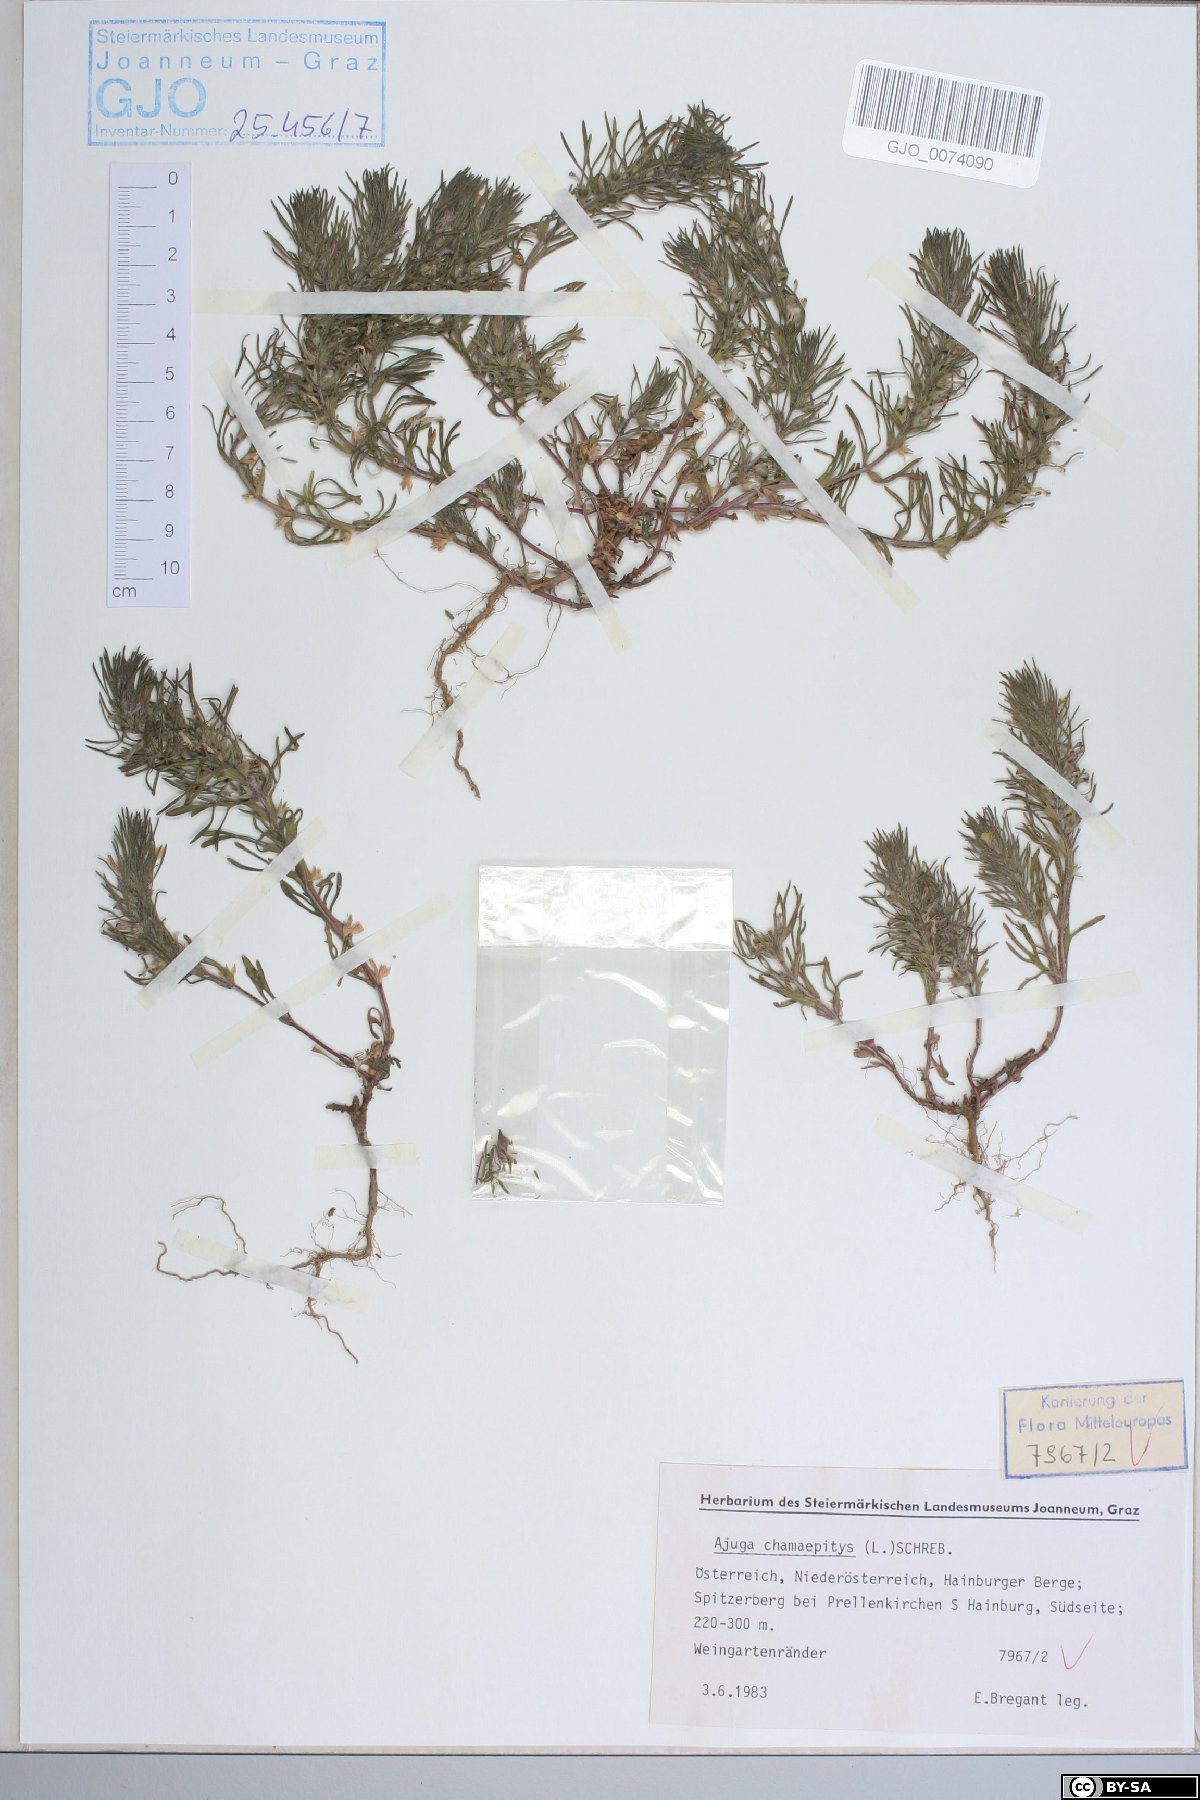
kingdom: Plantae
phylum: Tracheophyta
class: Magnoliopsida
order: Lamiales
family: Lamiaceae
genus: Ajuga
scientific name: Ajuga chamaepitys
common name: Ground-pine
